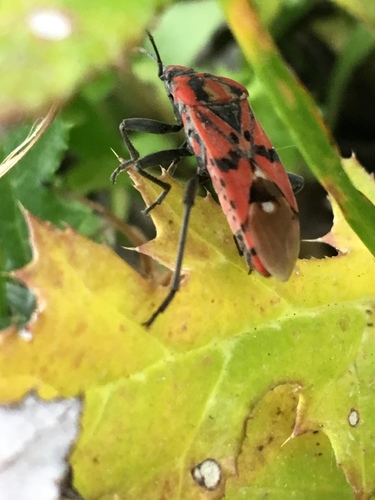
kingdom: Animalia
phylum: Arthropoda
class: Insecta
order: Hemiptera
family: Lygaeidae
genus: Spilostethus
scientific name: Spilostethus pandurus
